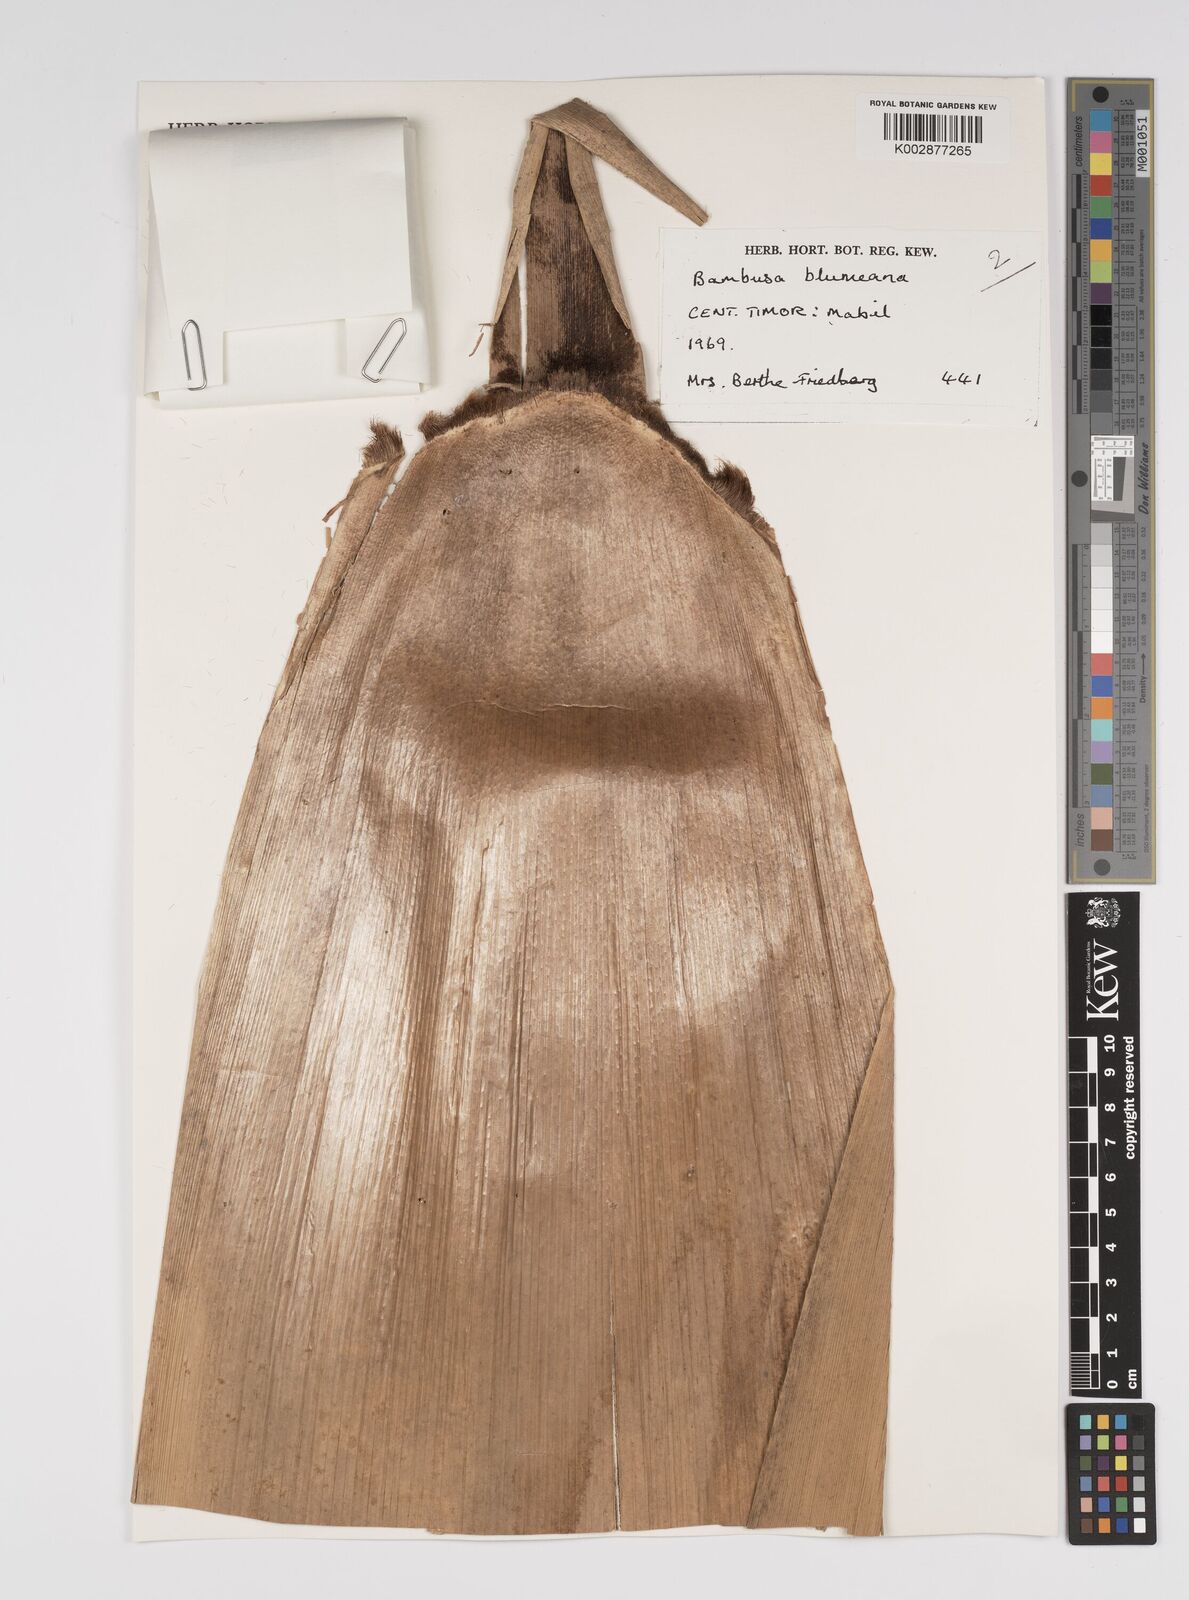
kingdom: Plantae
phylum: Tracheophyta
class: Liliopsida
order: Poales
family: Poaceae
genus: Bambusa
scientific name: Bambusa
